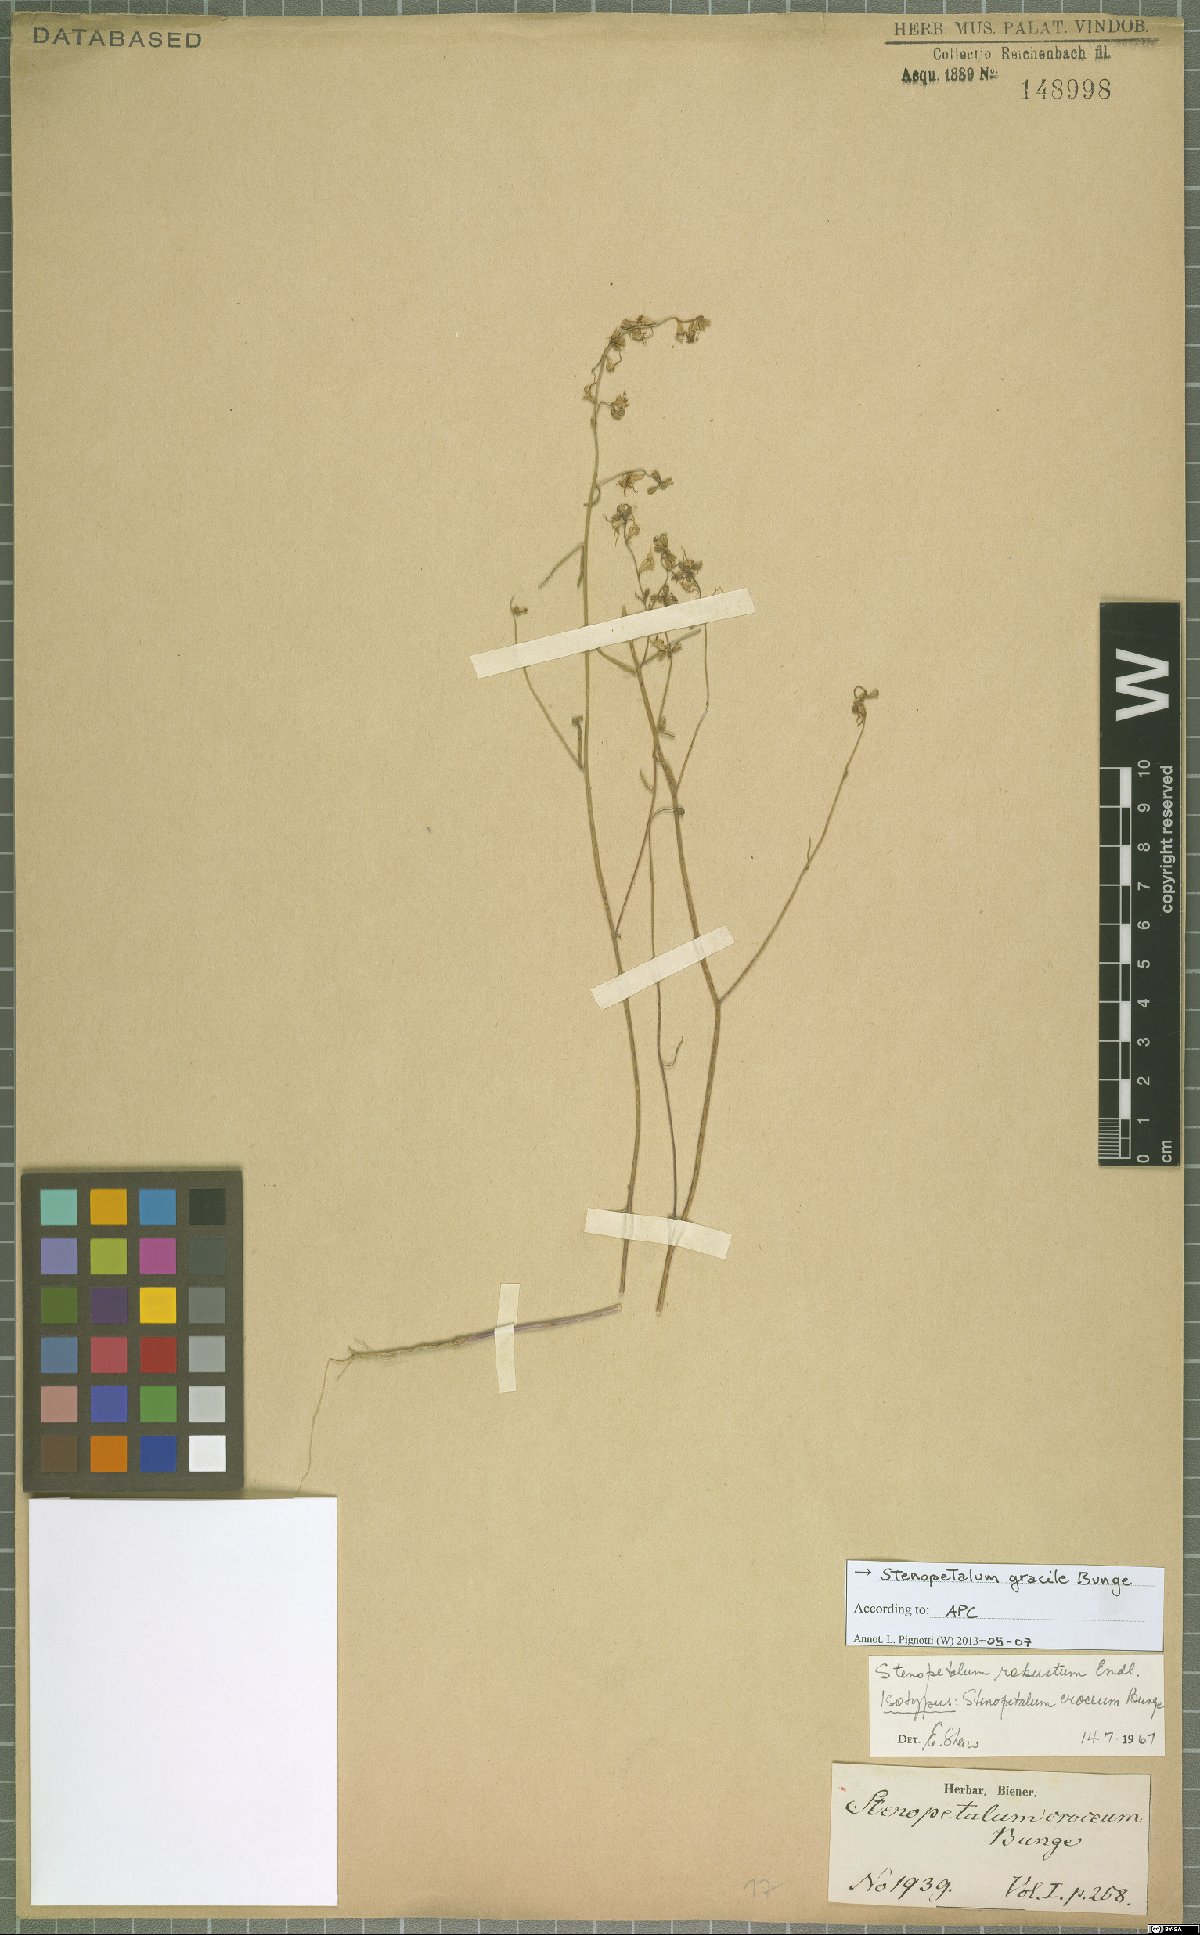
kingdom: Plantae
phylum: Tracheophyta
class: Magnoliopsida
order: Brassicales
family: Brassicaceae
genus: Stenopetalum
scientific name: Stenopetalum robustum
